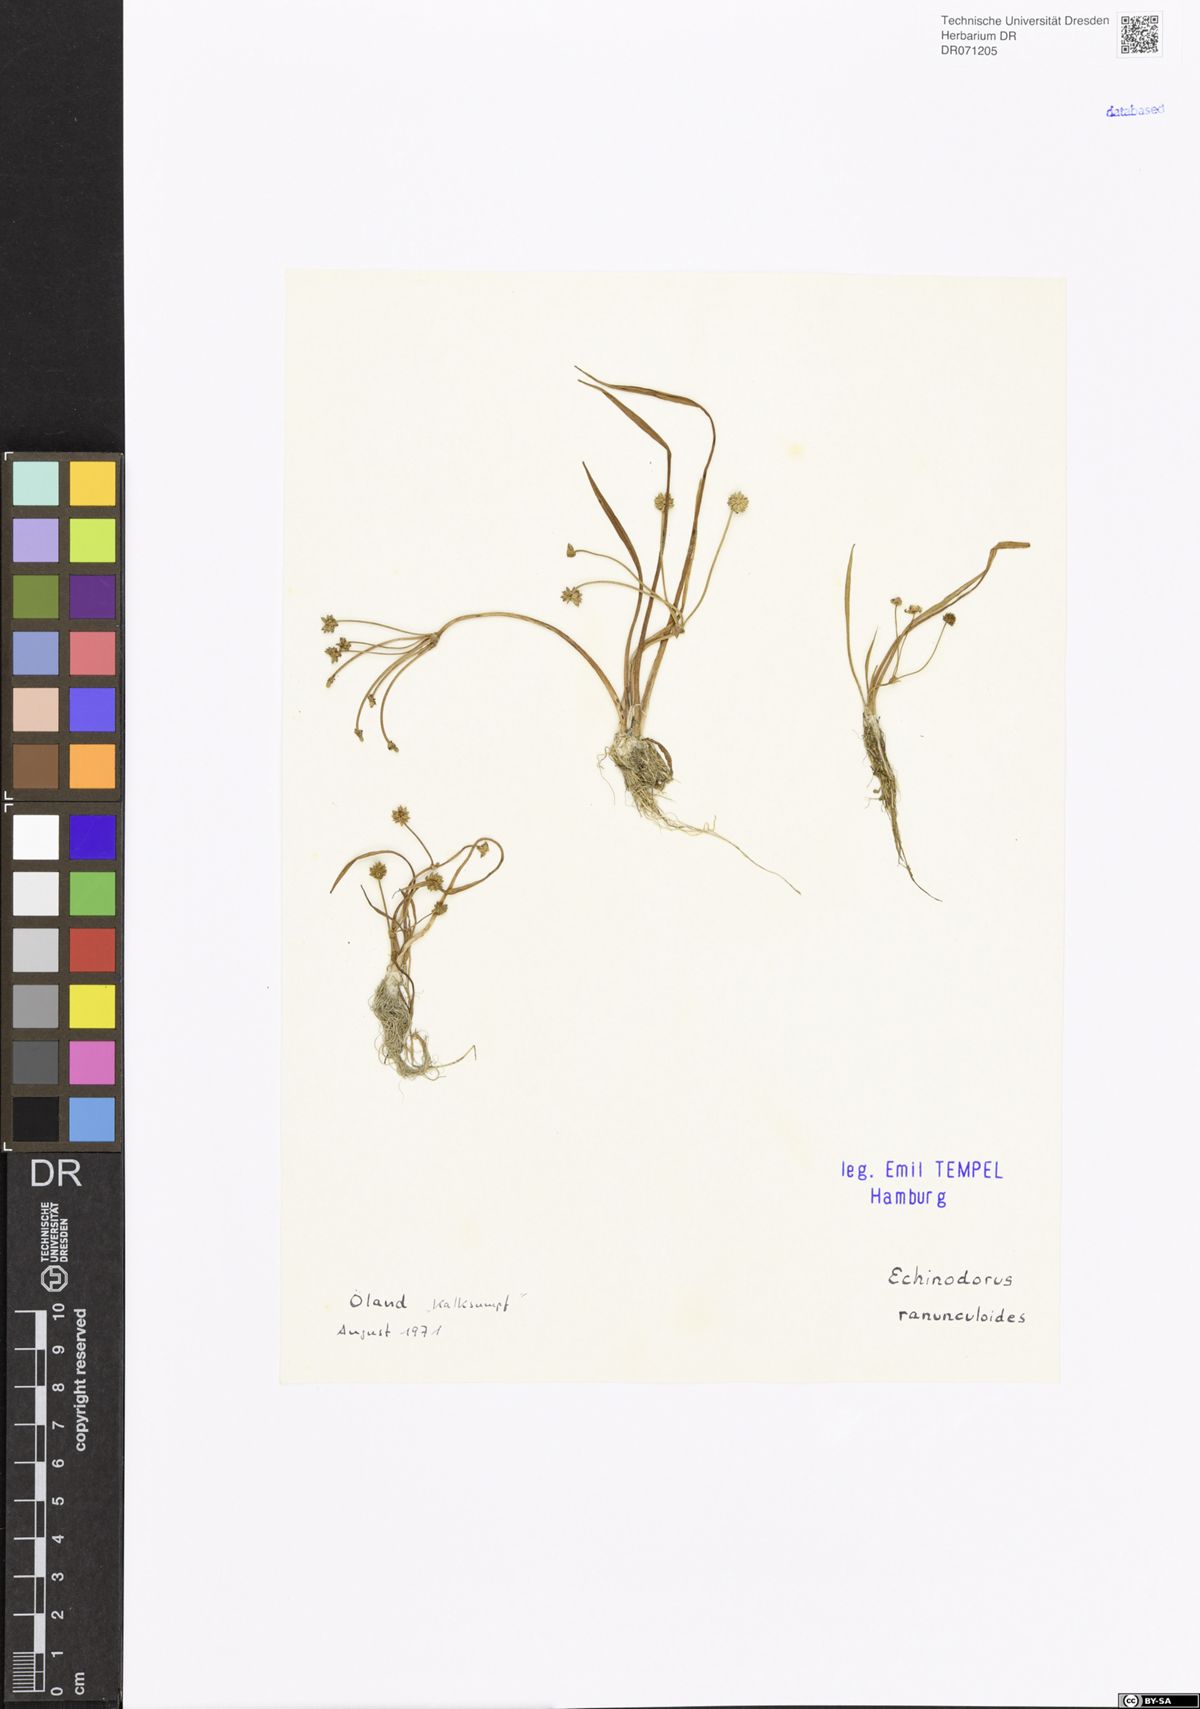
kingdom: Plantae
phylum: Tracheophyta
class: Liliopsida
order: Alismatales
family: Alismataceae
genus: Baldellia
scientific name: Baldellia ranunculoides
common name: Lesser water-plantain
